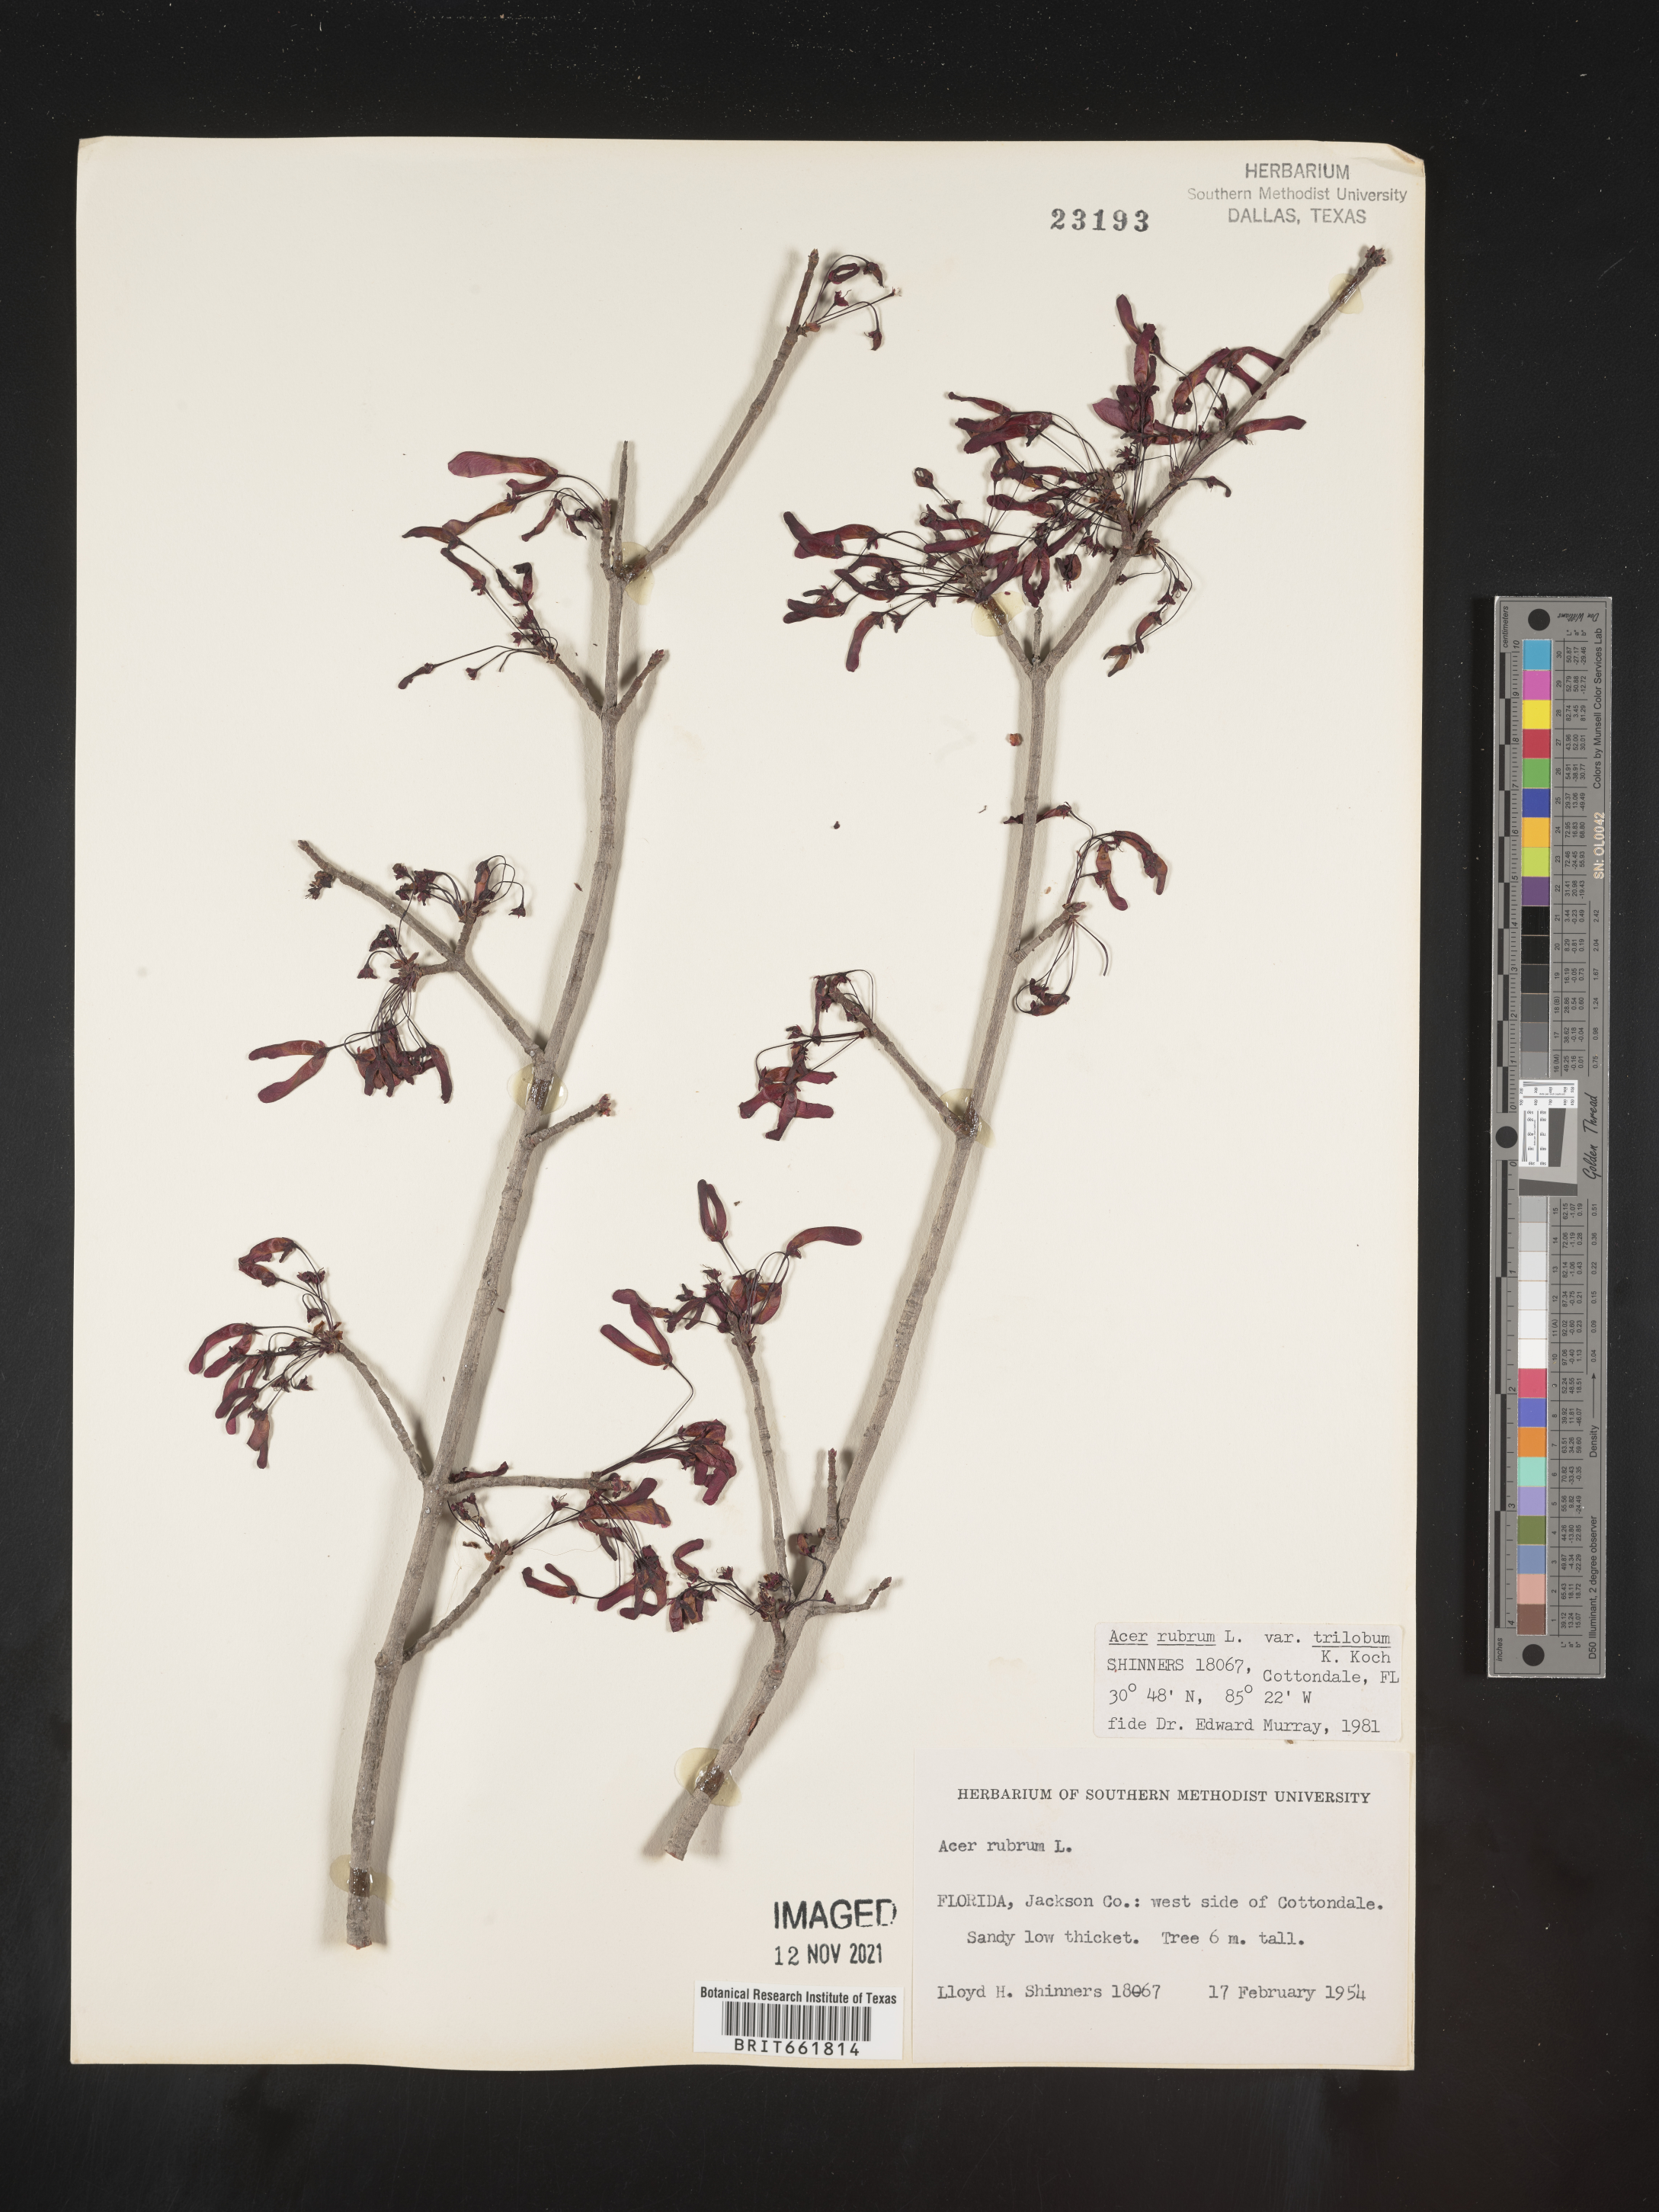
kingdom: Plantae
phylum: Tracheophyta
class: Magnoliopsida
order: Sapindales
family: Sapindaceae
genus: Acer
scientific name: Acer rubrum
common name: Red maple
